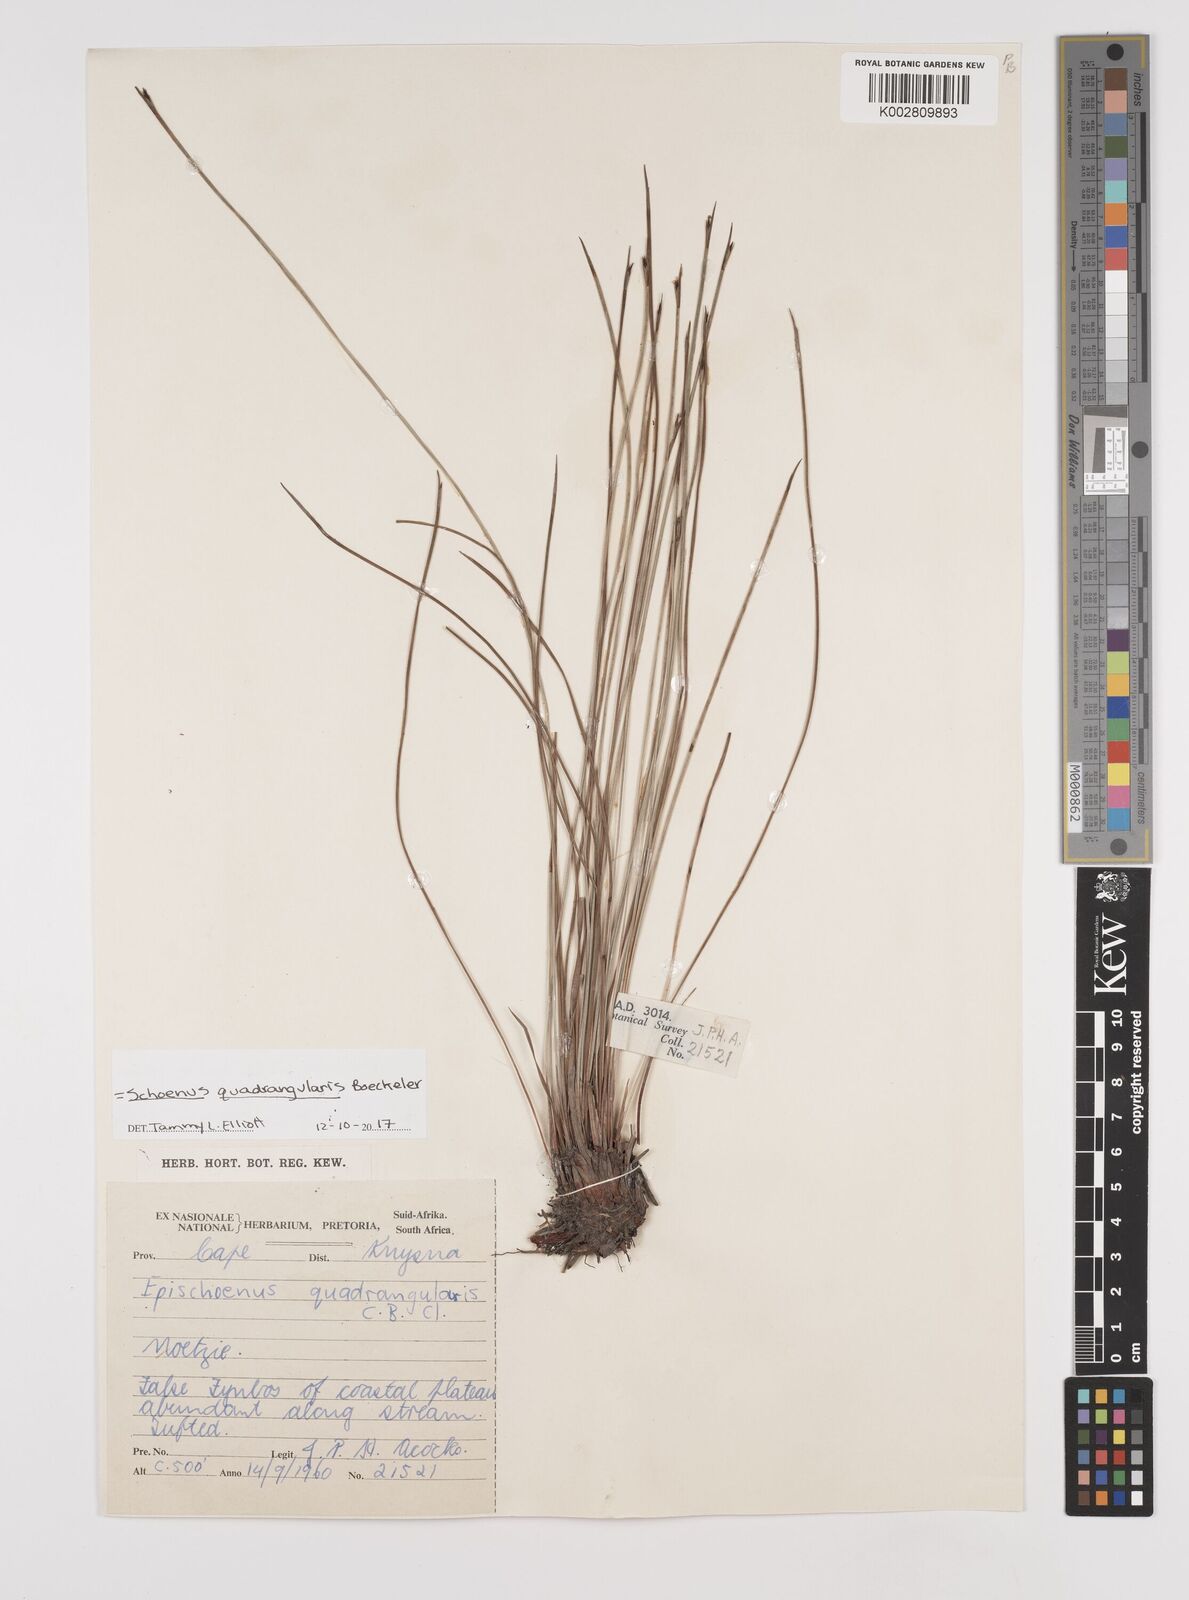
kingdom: Plantae
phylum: Tracheophyta
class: Liliopsida
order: Poales
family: Cyperaceae
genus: Schoenus
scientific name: Schoenus
